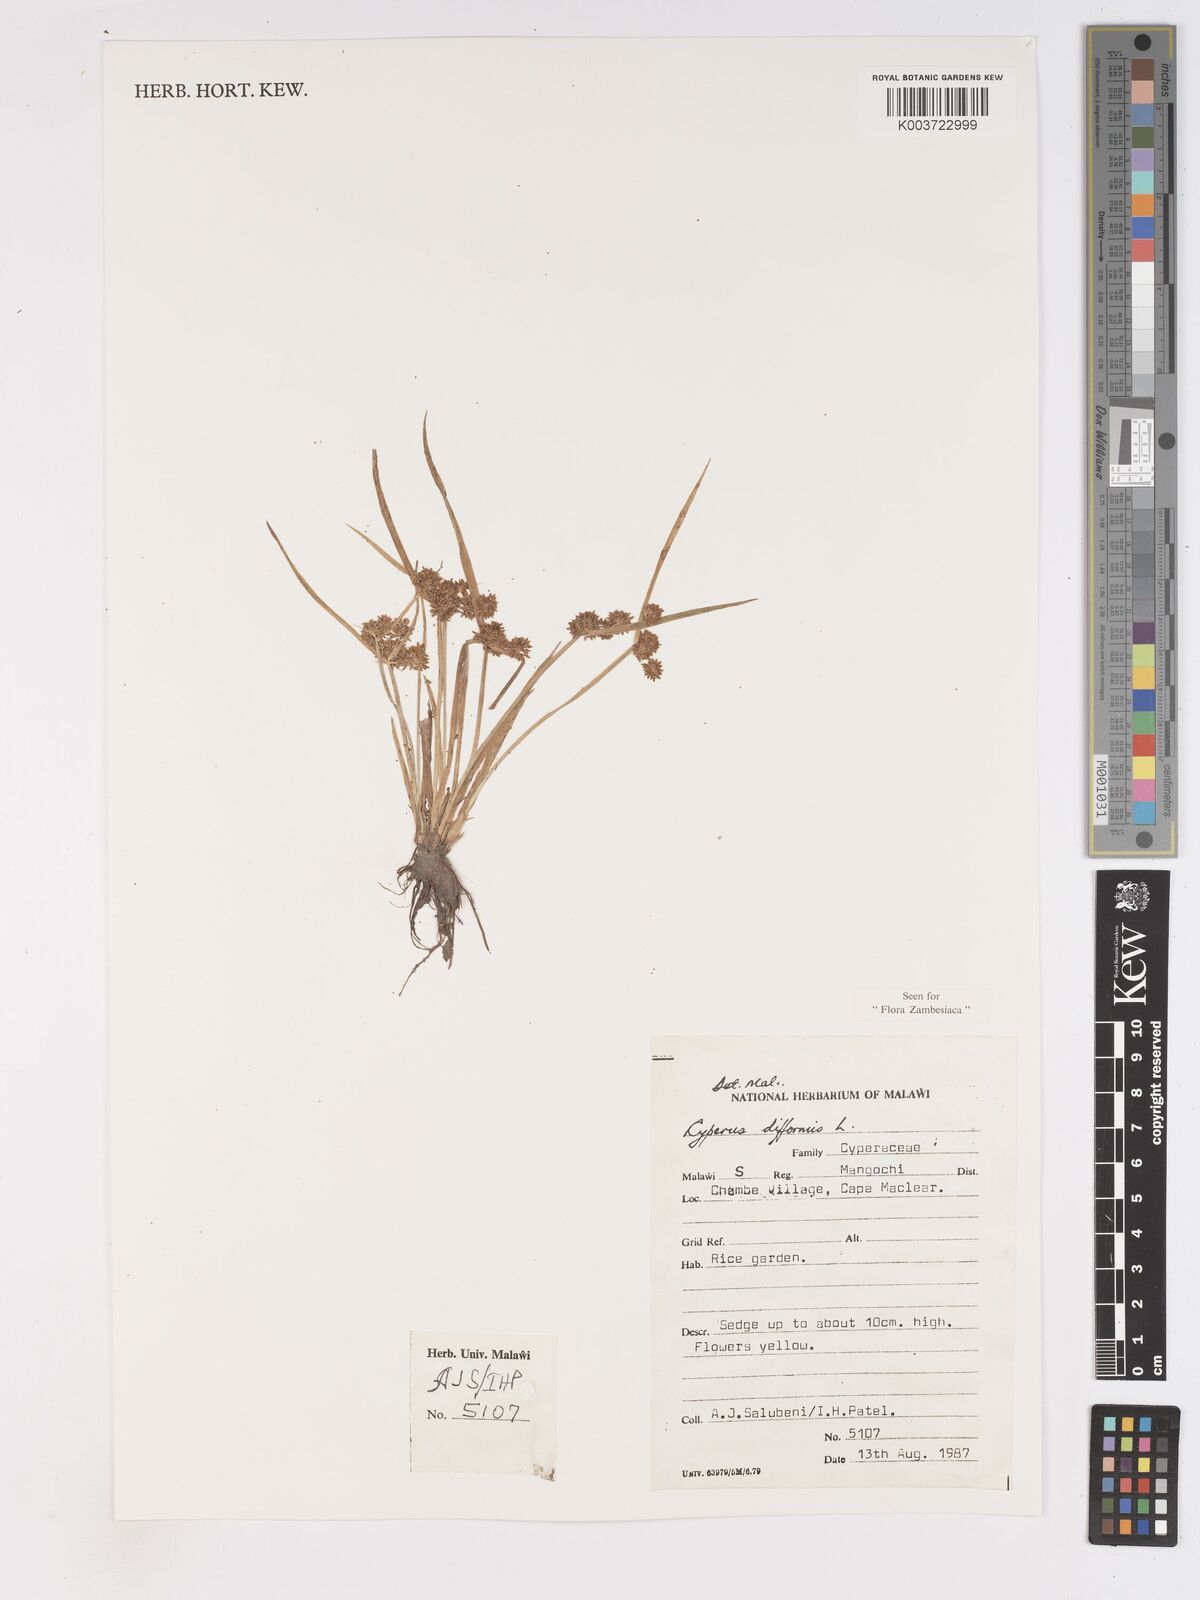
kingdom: Plantae
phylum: Tracheophyta
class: Liliopsida
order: Poales
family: Cyperaceae
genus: Cyperus
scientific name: Cyperus difformis
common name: Variable flatsedge
